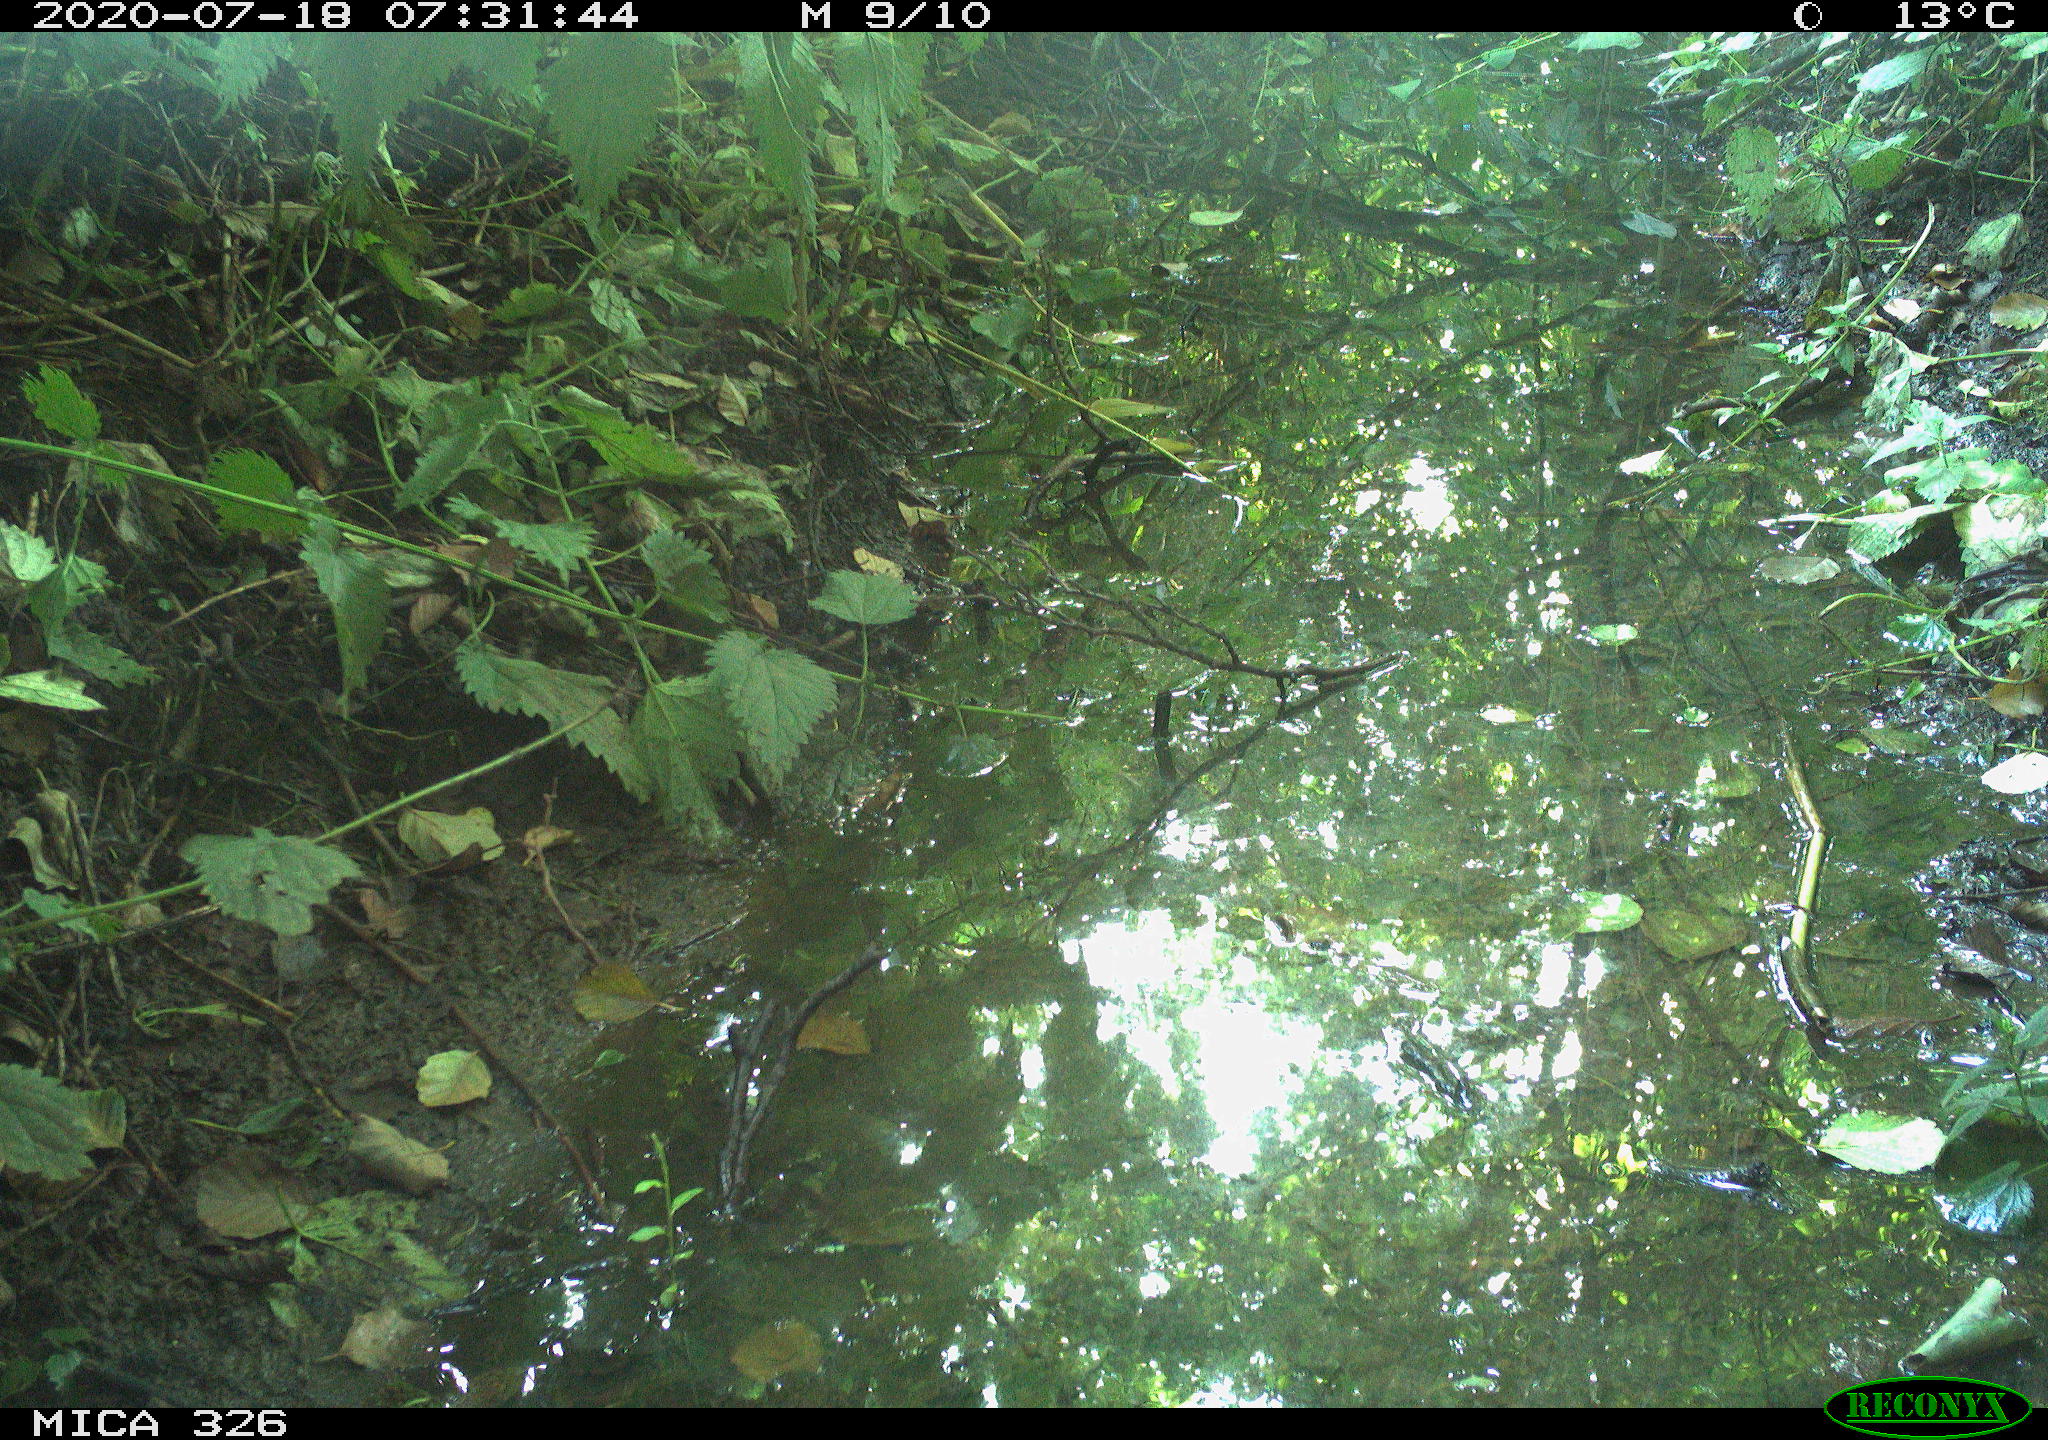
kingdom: Animalia
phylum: Chordata
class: Mammalia
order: Rodentia
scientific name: Rodentia
